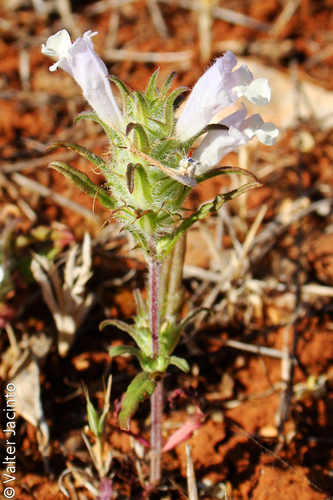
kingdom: Plantae
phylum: Tracheophyta
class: Magnoliopsida
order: Lamiales
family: Lamiaceae
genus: Cleonia
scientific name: Cleonia lusitanica
